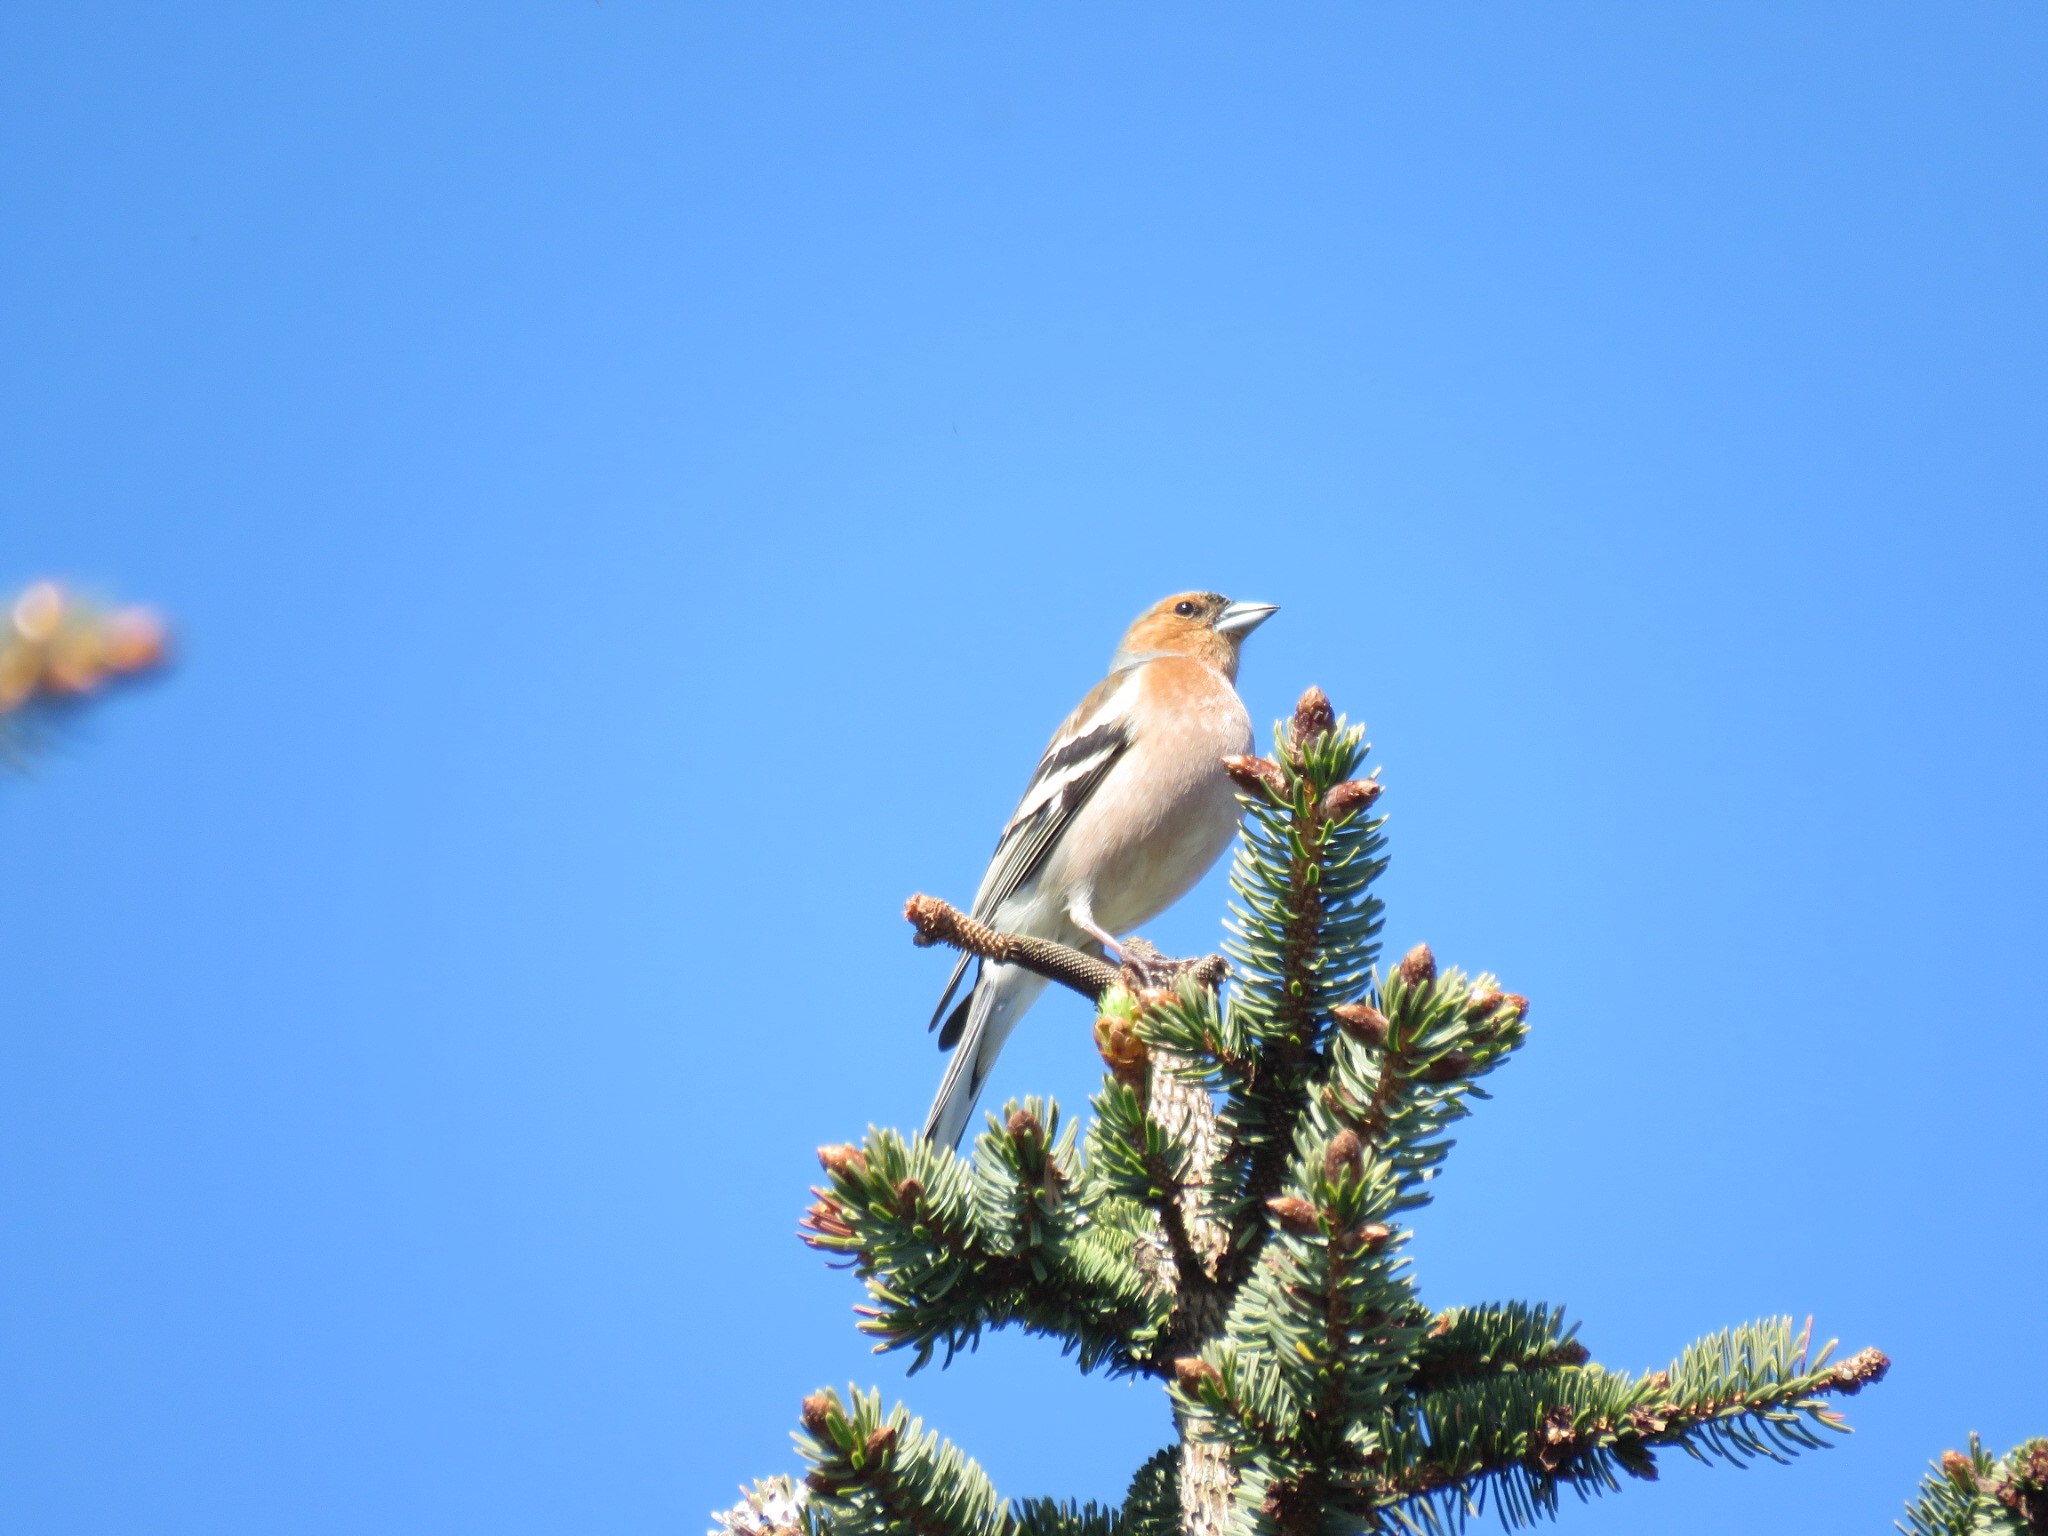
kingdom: Animalia
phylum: Chordata
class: Aves
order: Passeriformes
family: Fringillidae
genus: Fringilla
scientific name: Fringilla coelebs
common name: Bogfinke
